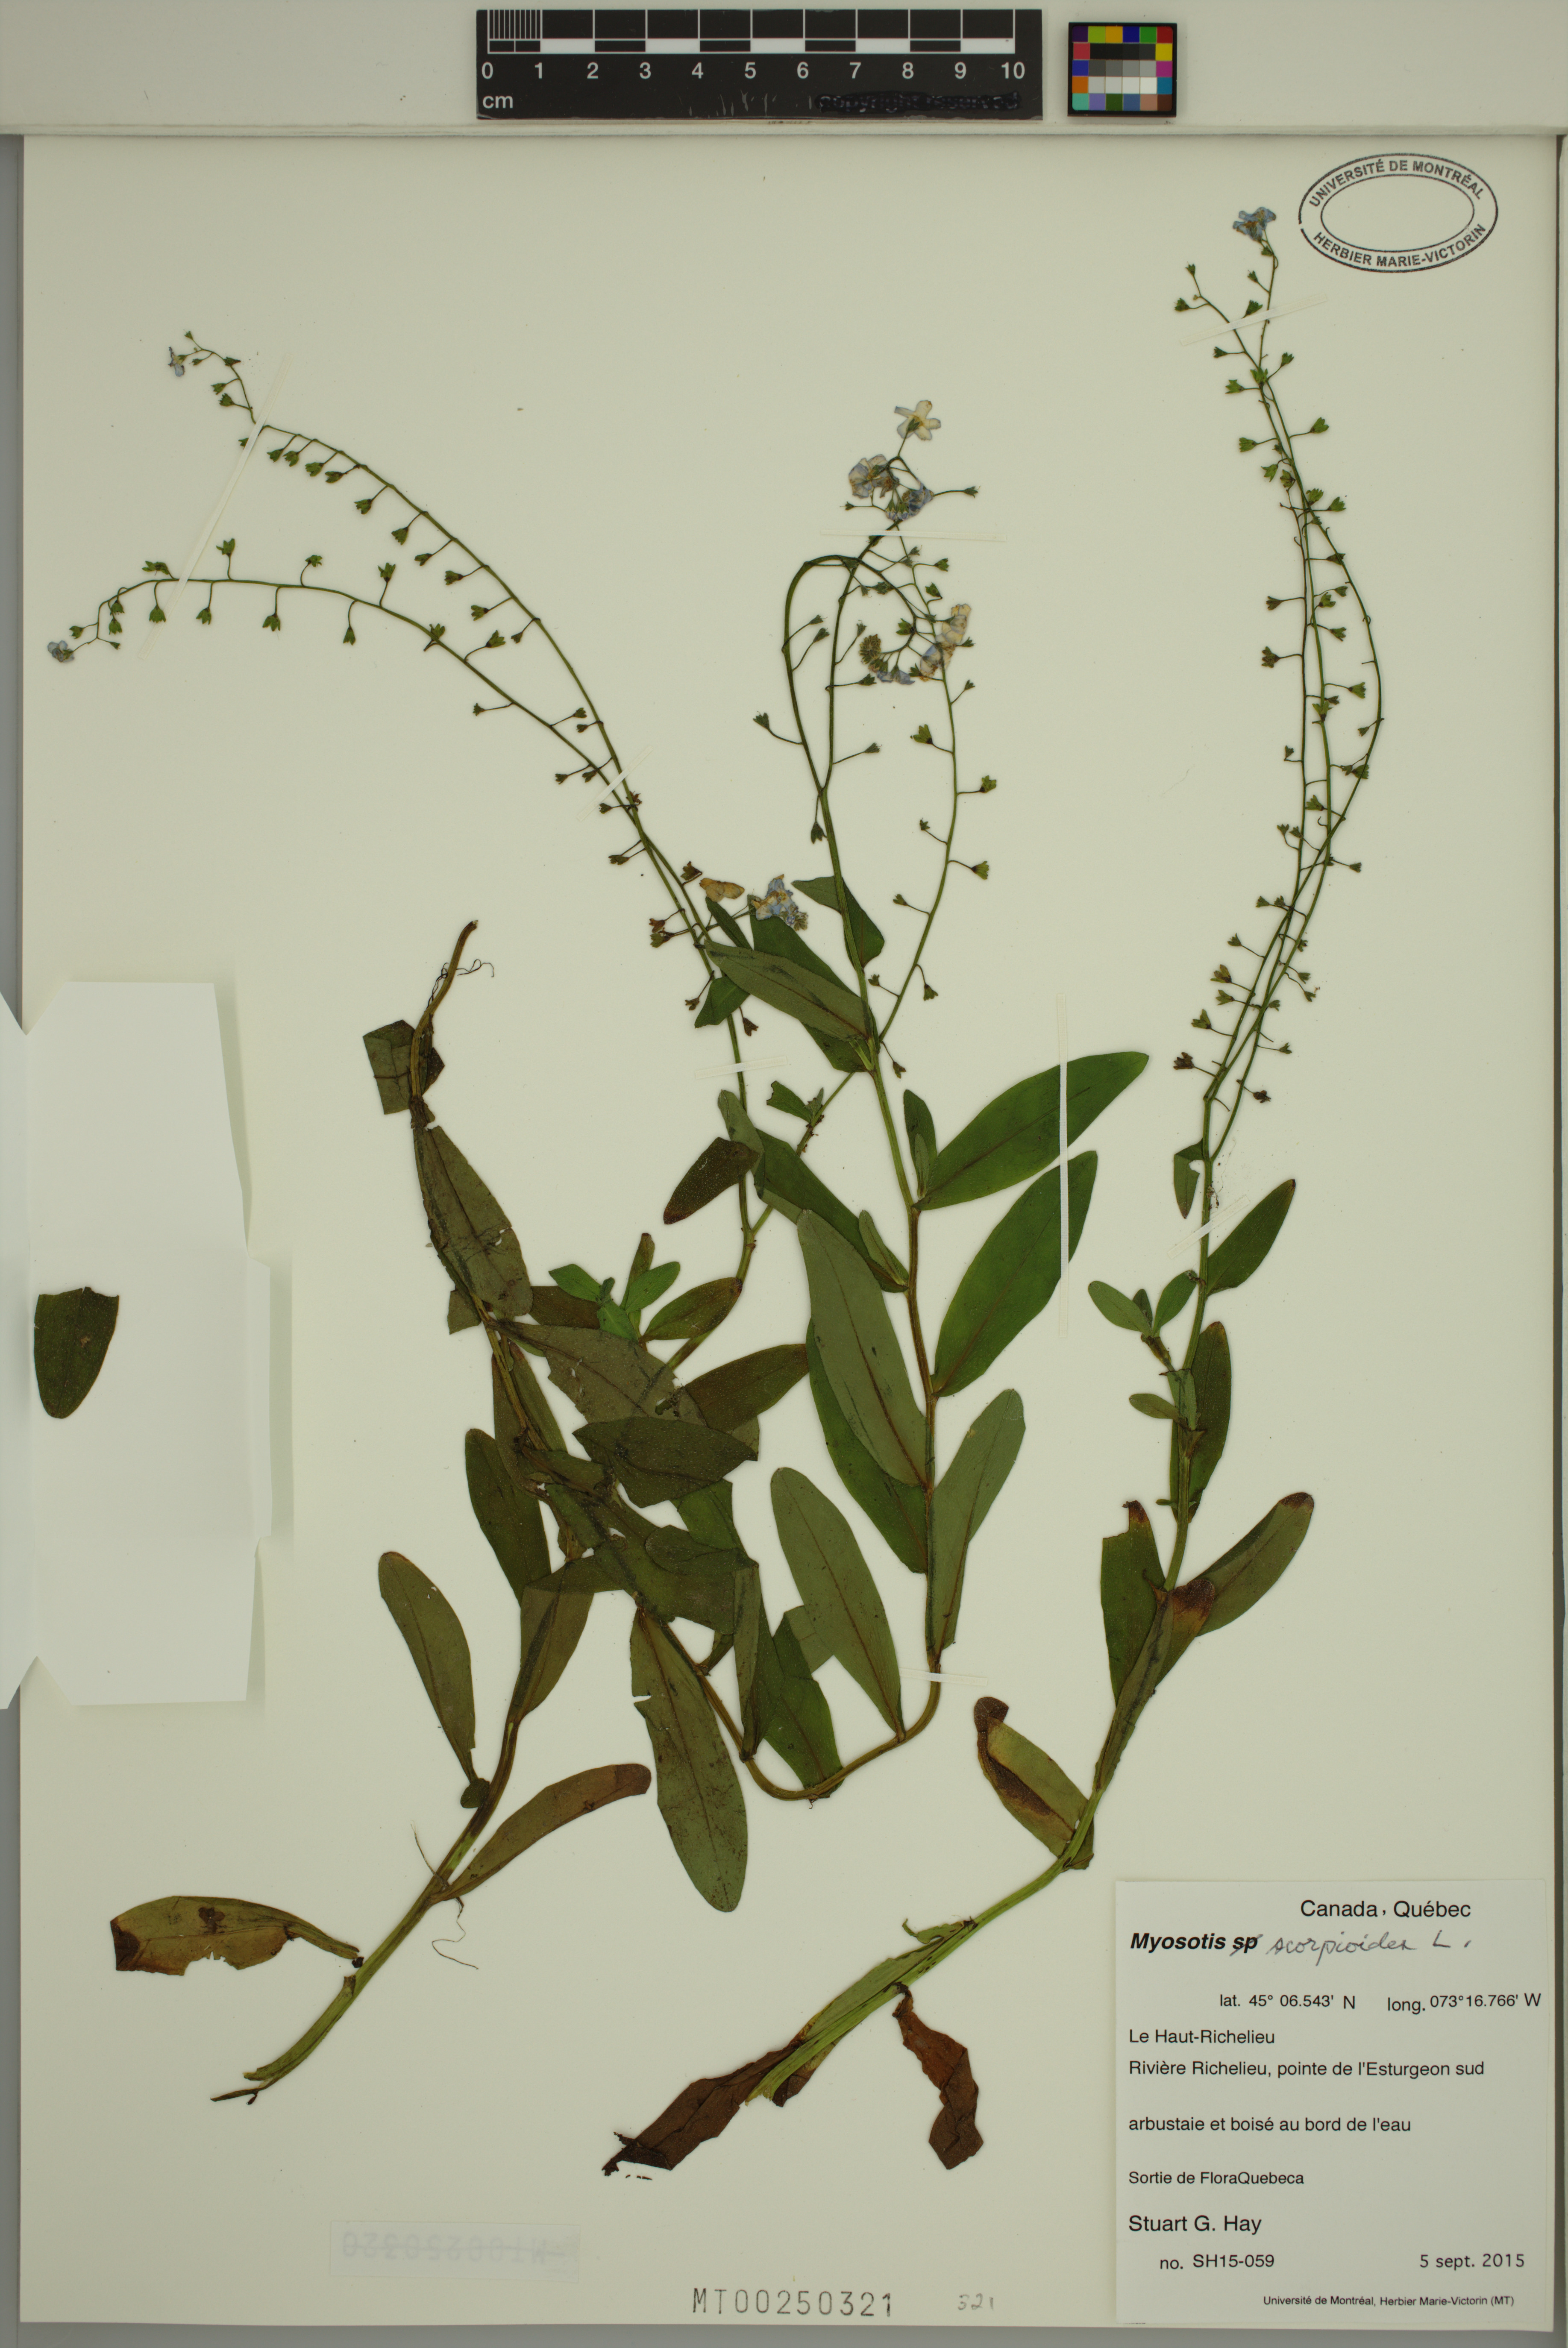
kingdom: Plantae
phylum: Tracheophyta
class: Magnoliopsida
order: Boraginales
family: Boraginaceae
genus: Myosotis
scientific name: Myosotis scorpioides
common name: Water forget-me-not
